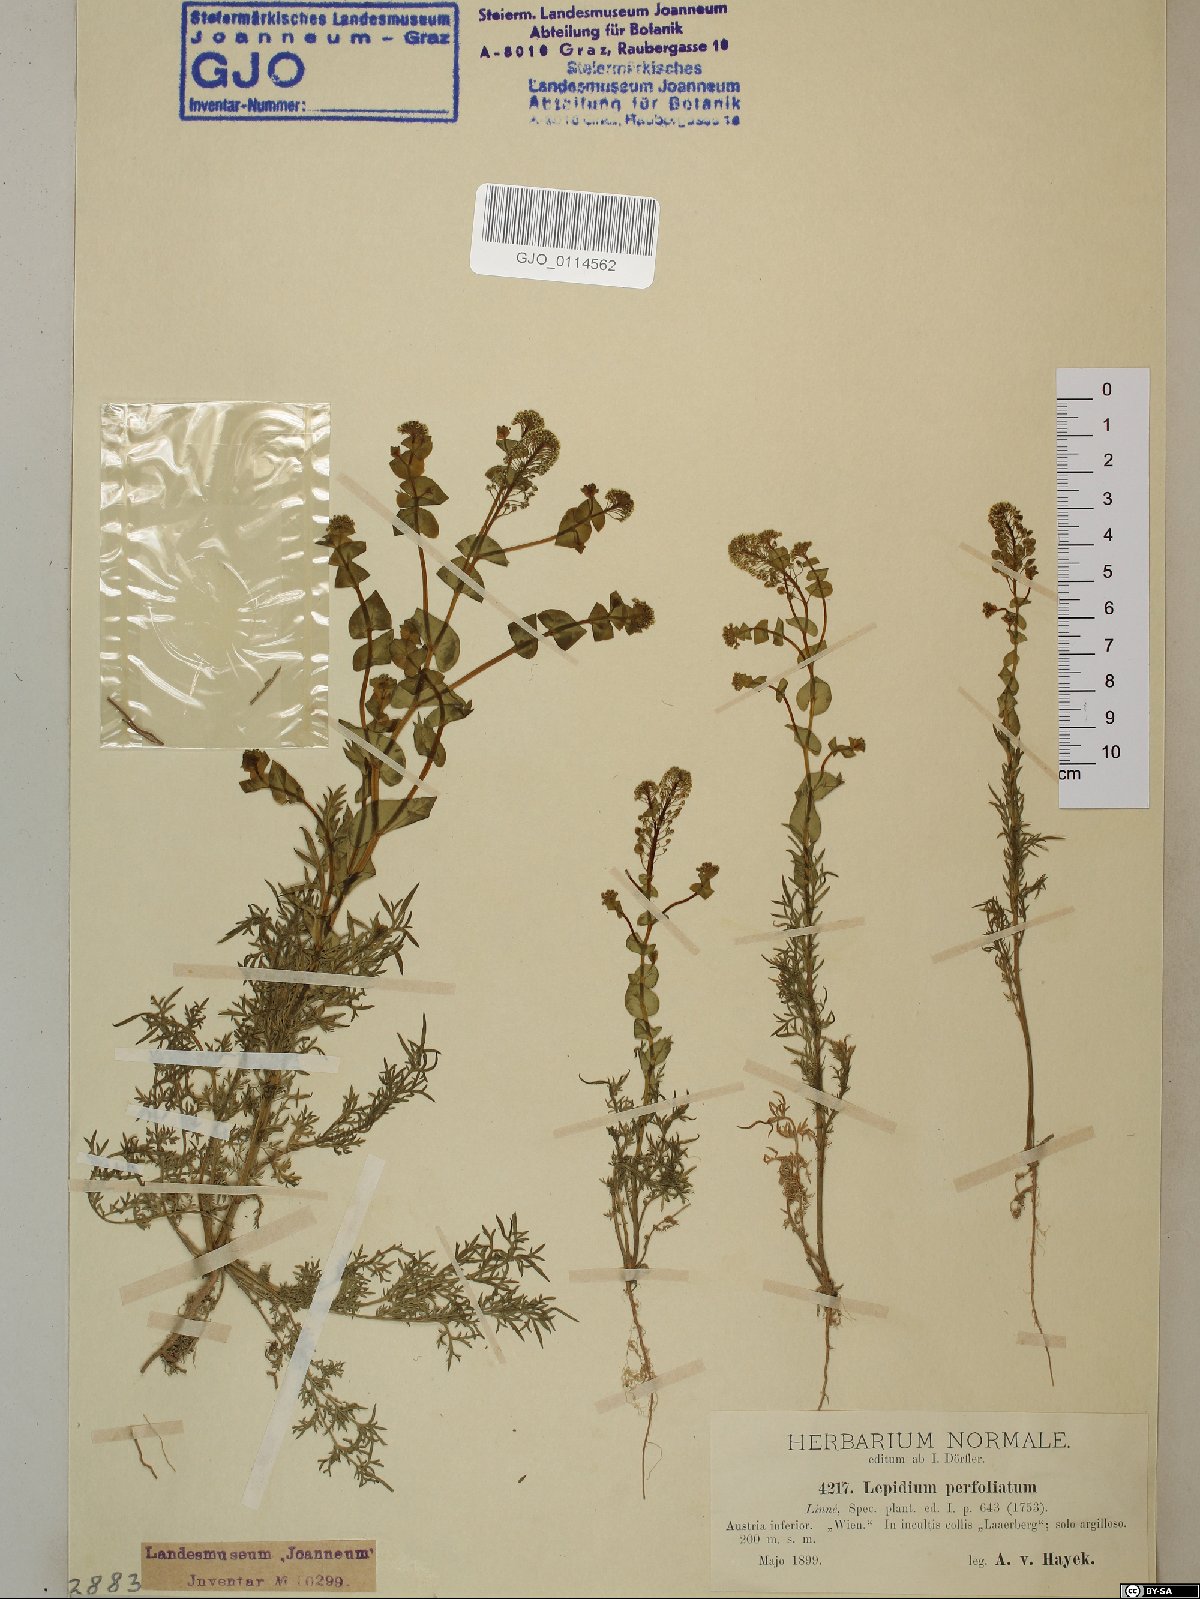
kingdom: Plantae
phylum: Tracheophyta
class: Magnoliopsida
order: Brassicales
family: Brassicaceae
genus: Lepidium
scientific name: Lepidium perfoliatum
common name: Perfoliate pepperwort
